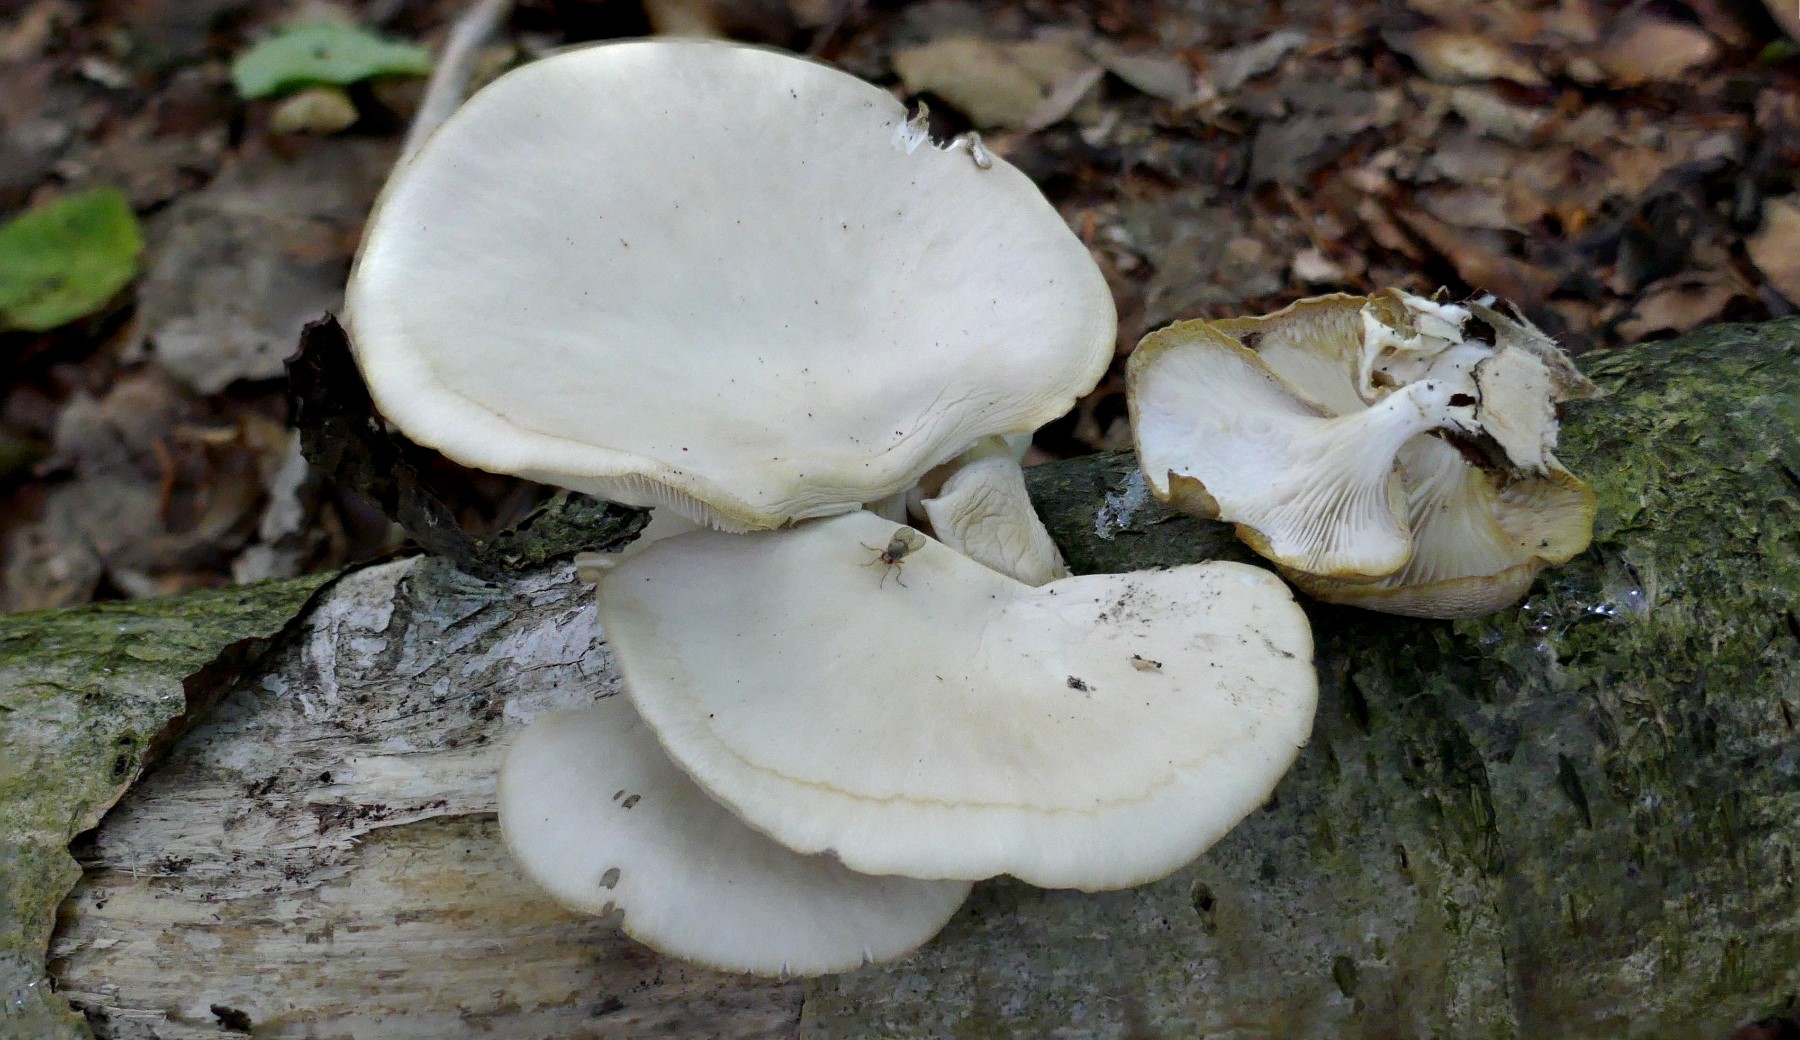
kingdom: Fungi
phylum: Basidiomycota
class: Agaricomycetes
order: Agaricales
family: Pleurotaceae
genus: Pleurotus
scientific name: Pleurotus pulmonarius
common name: sommer-østershat
